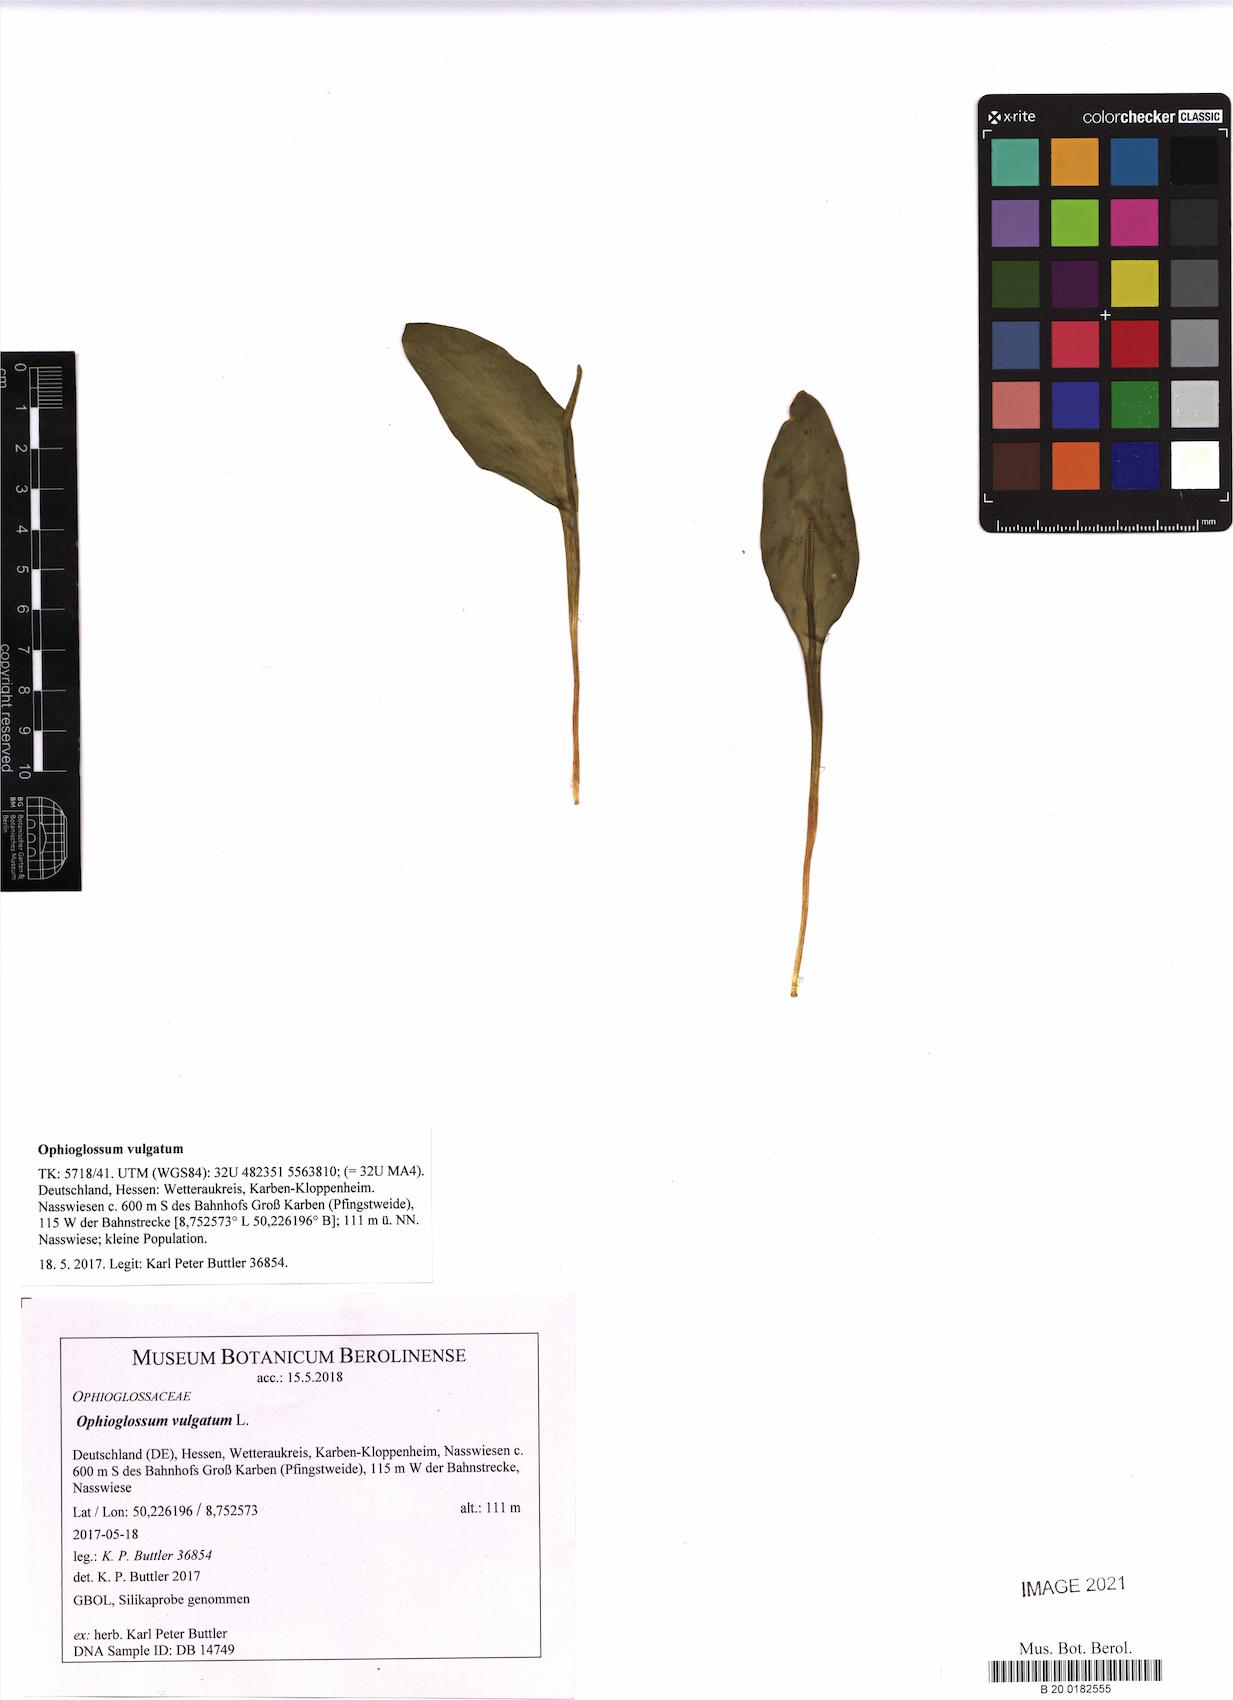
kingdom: Plantae
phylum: Tracheophyta
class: Polypodiopsida
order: Ophioglossales
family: Ophioglossaceae
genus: Ophioglossum
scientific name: Ophioglossum vulgatum
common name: Adder's-tongue
